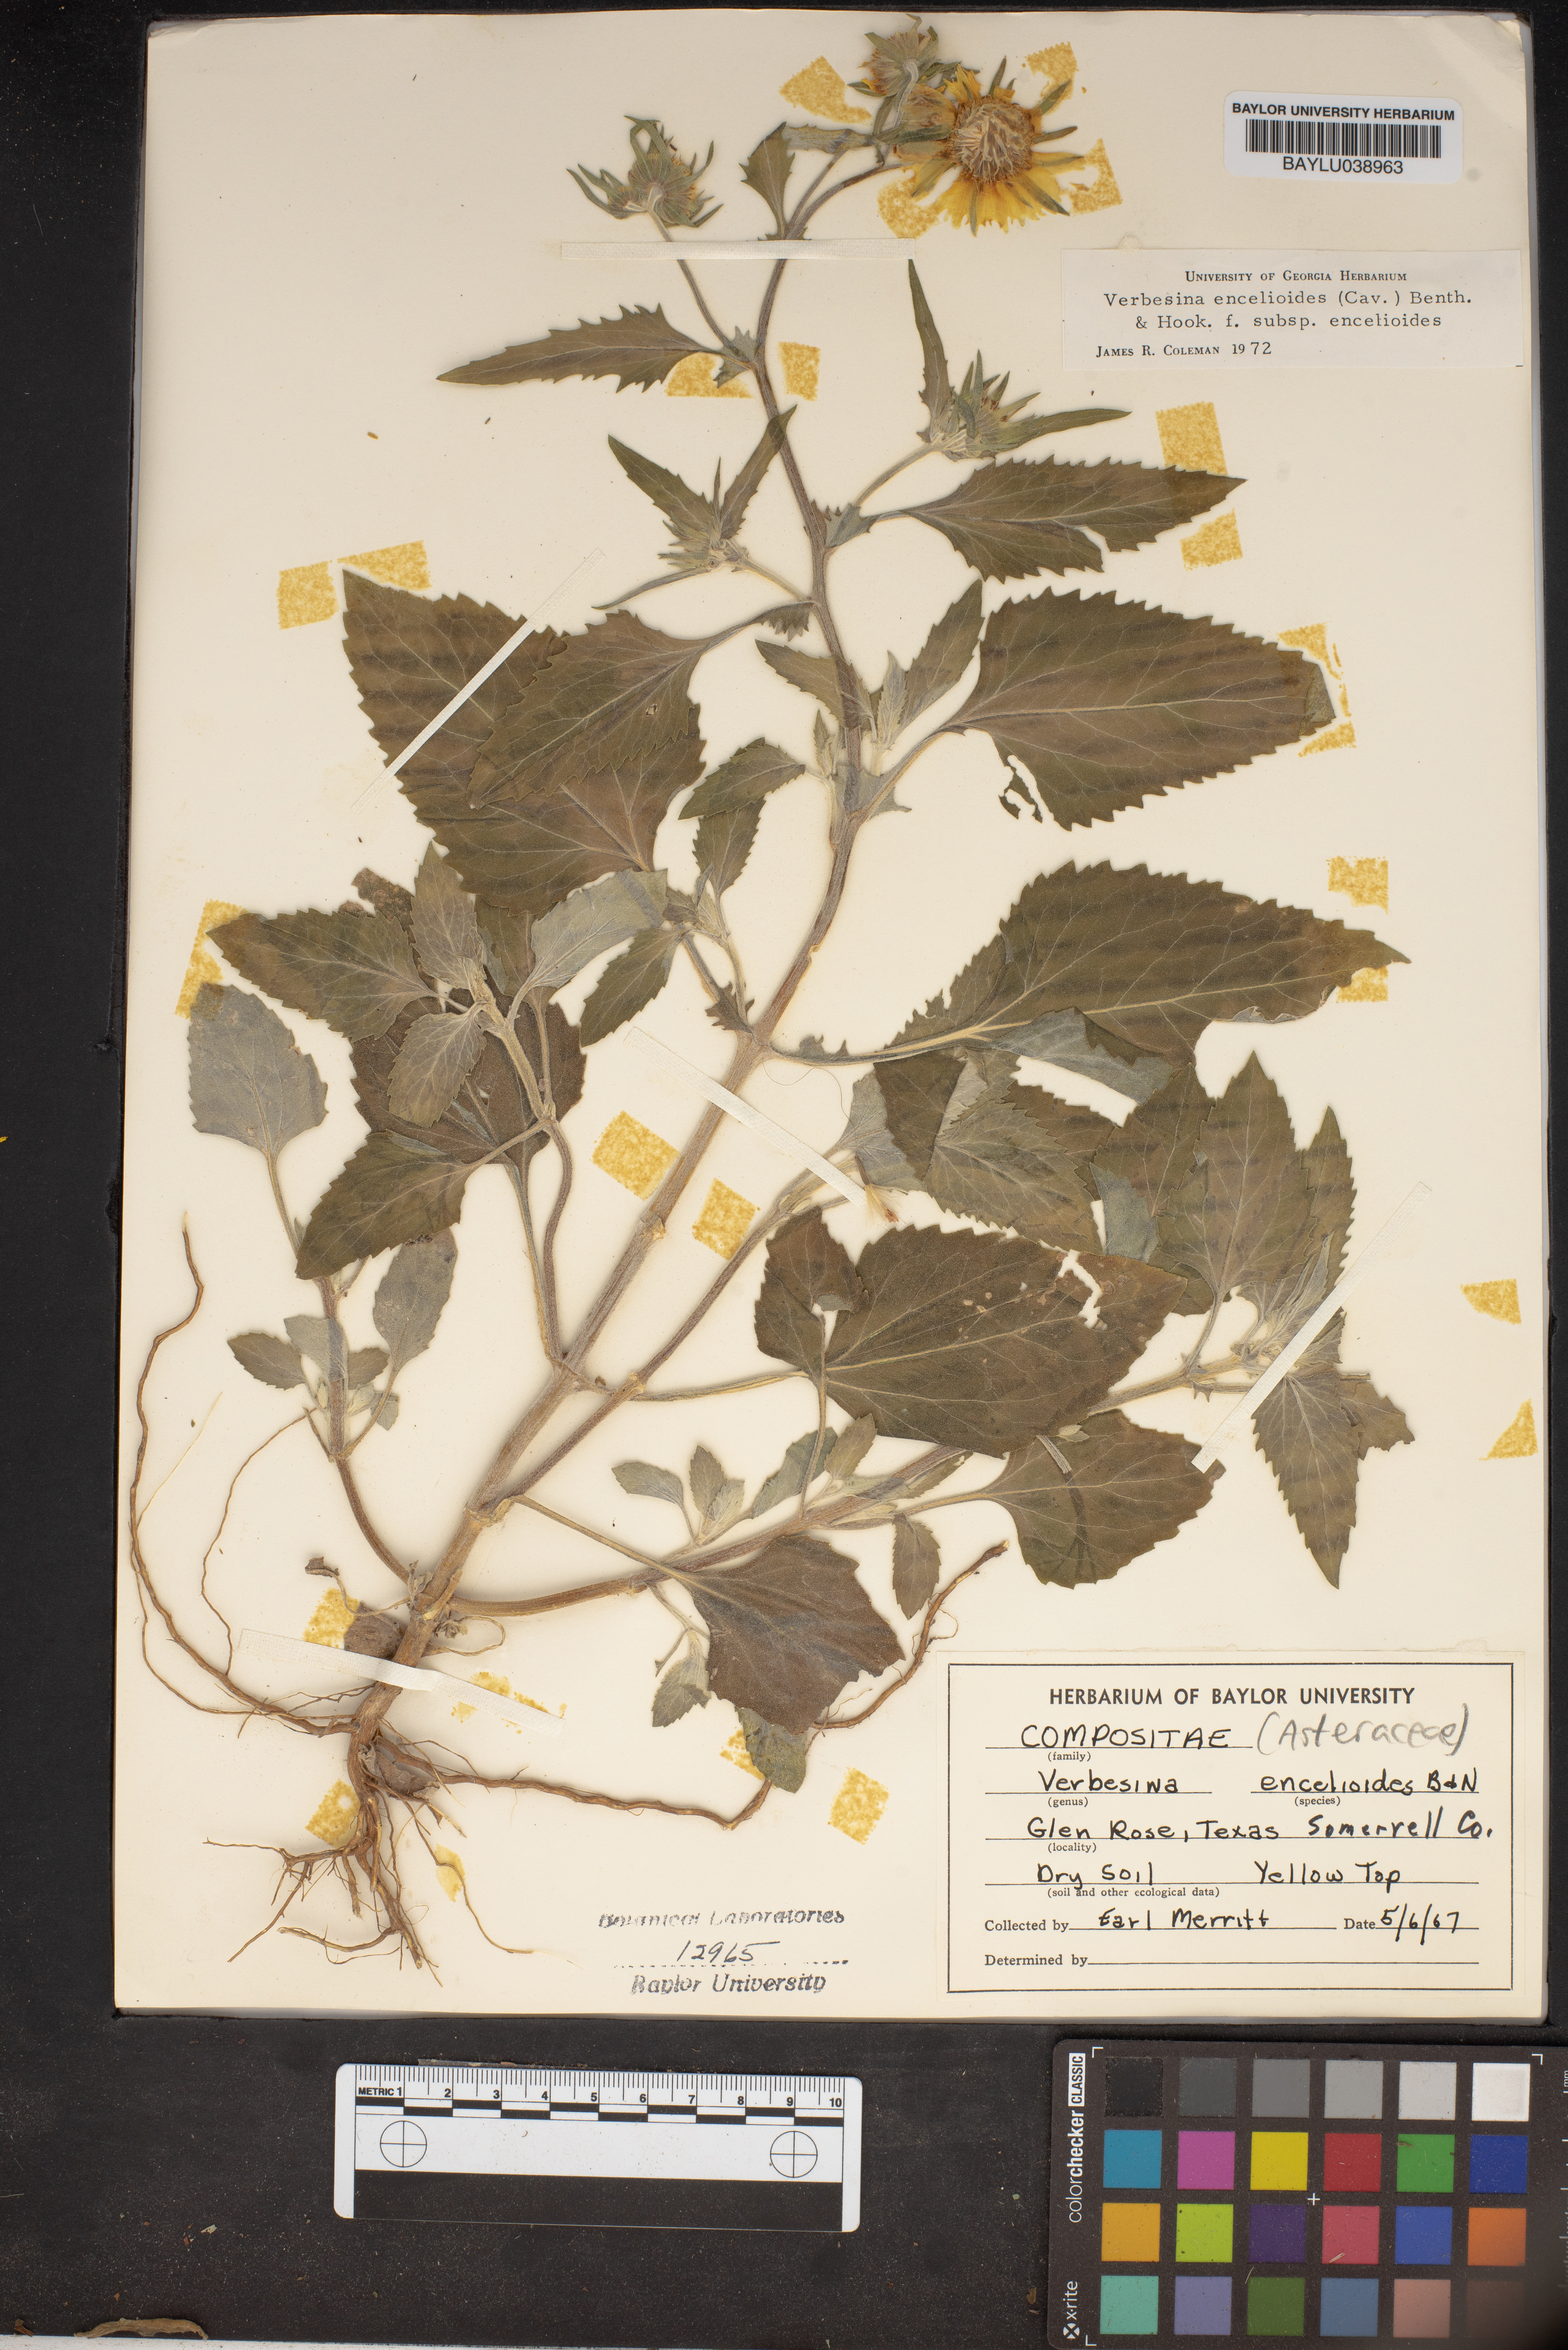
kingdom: Plantae
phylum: Tracheophyta
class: Magnoliopsida
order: Asterales
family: Asteraceae
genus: Verbesina
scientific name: Verbesina encelioides
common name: Golden crownbeard
